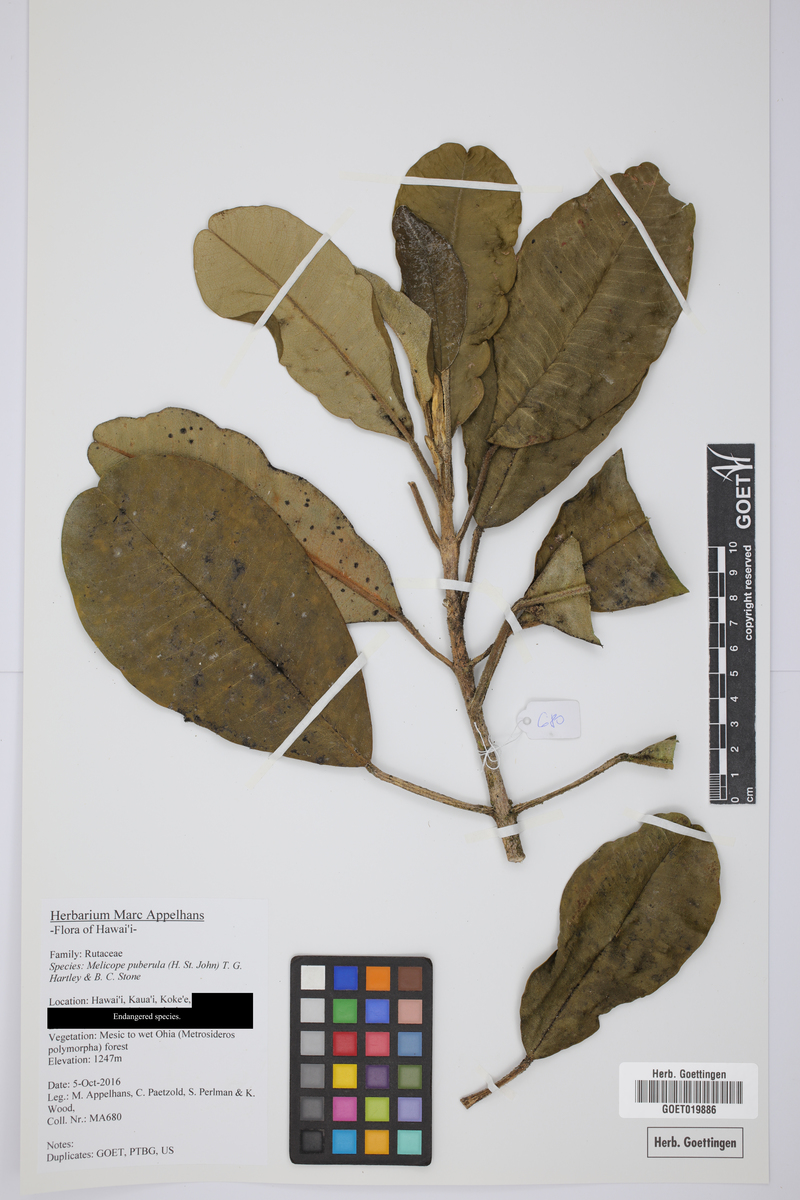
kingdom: Plantae
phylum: Tracheophyta
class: Magnoliopsida
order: Sapindales
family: Rutaceae
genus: Melicope
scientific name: Melicope puberula
